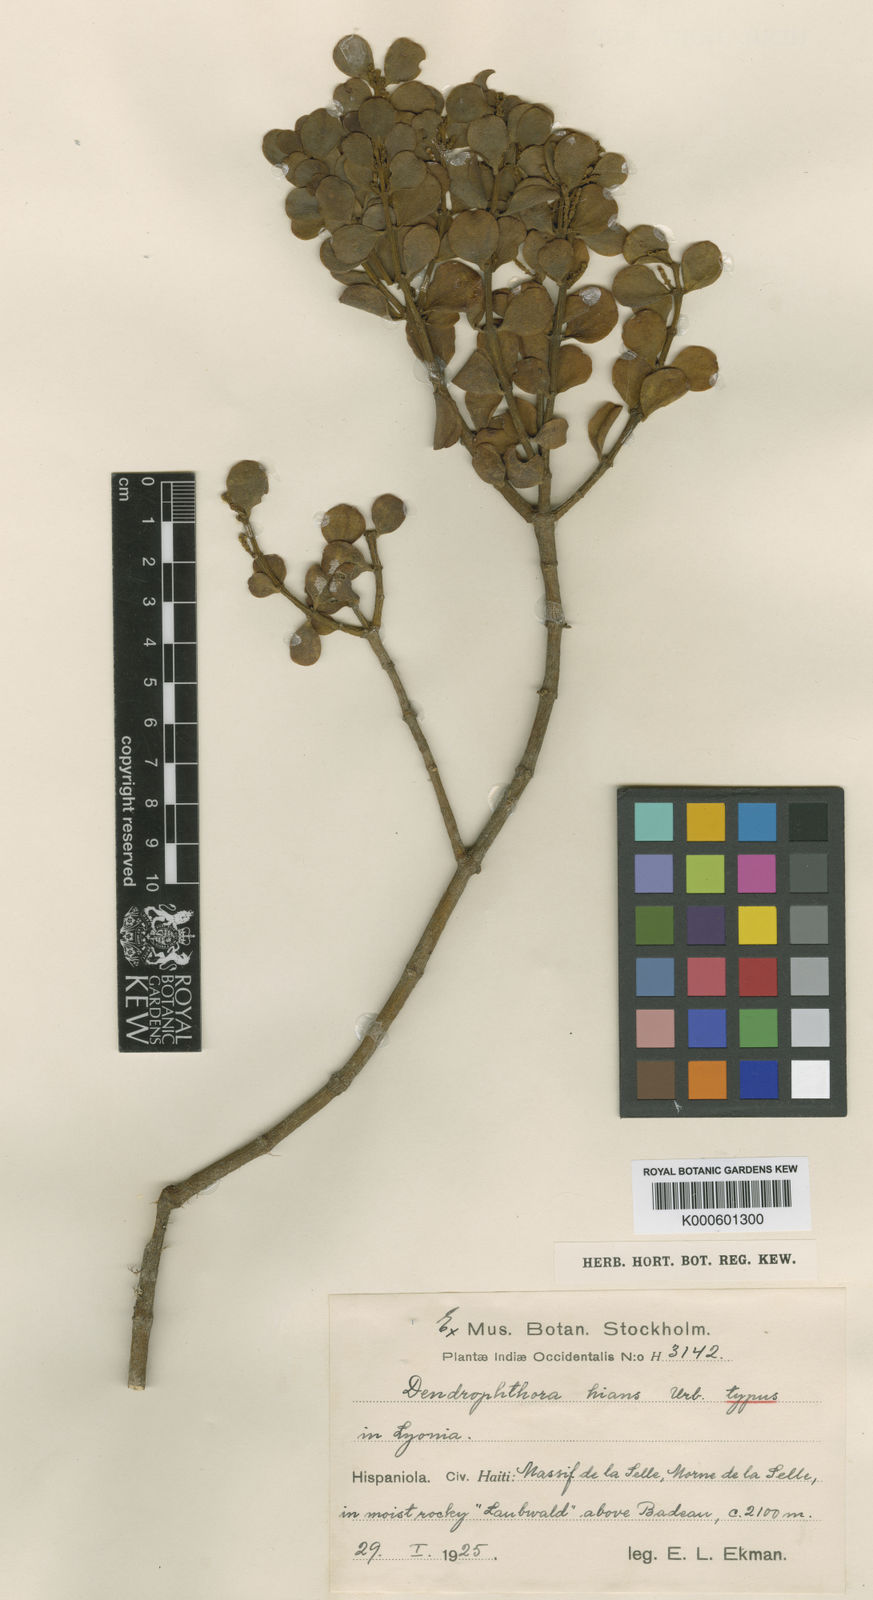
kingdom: Plantae
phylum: Tracheophyta
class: Magnoliopsida
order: Santalales
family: Viscaceae
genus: Dendrophthora
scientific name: Dendrophthora lamprophylla
